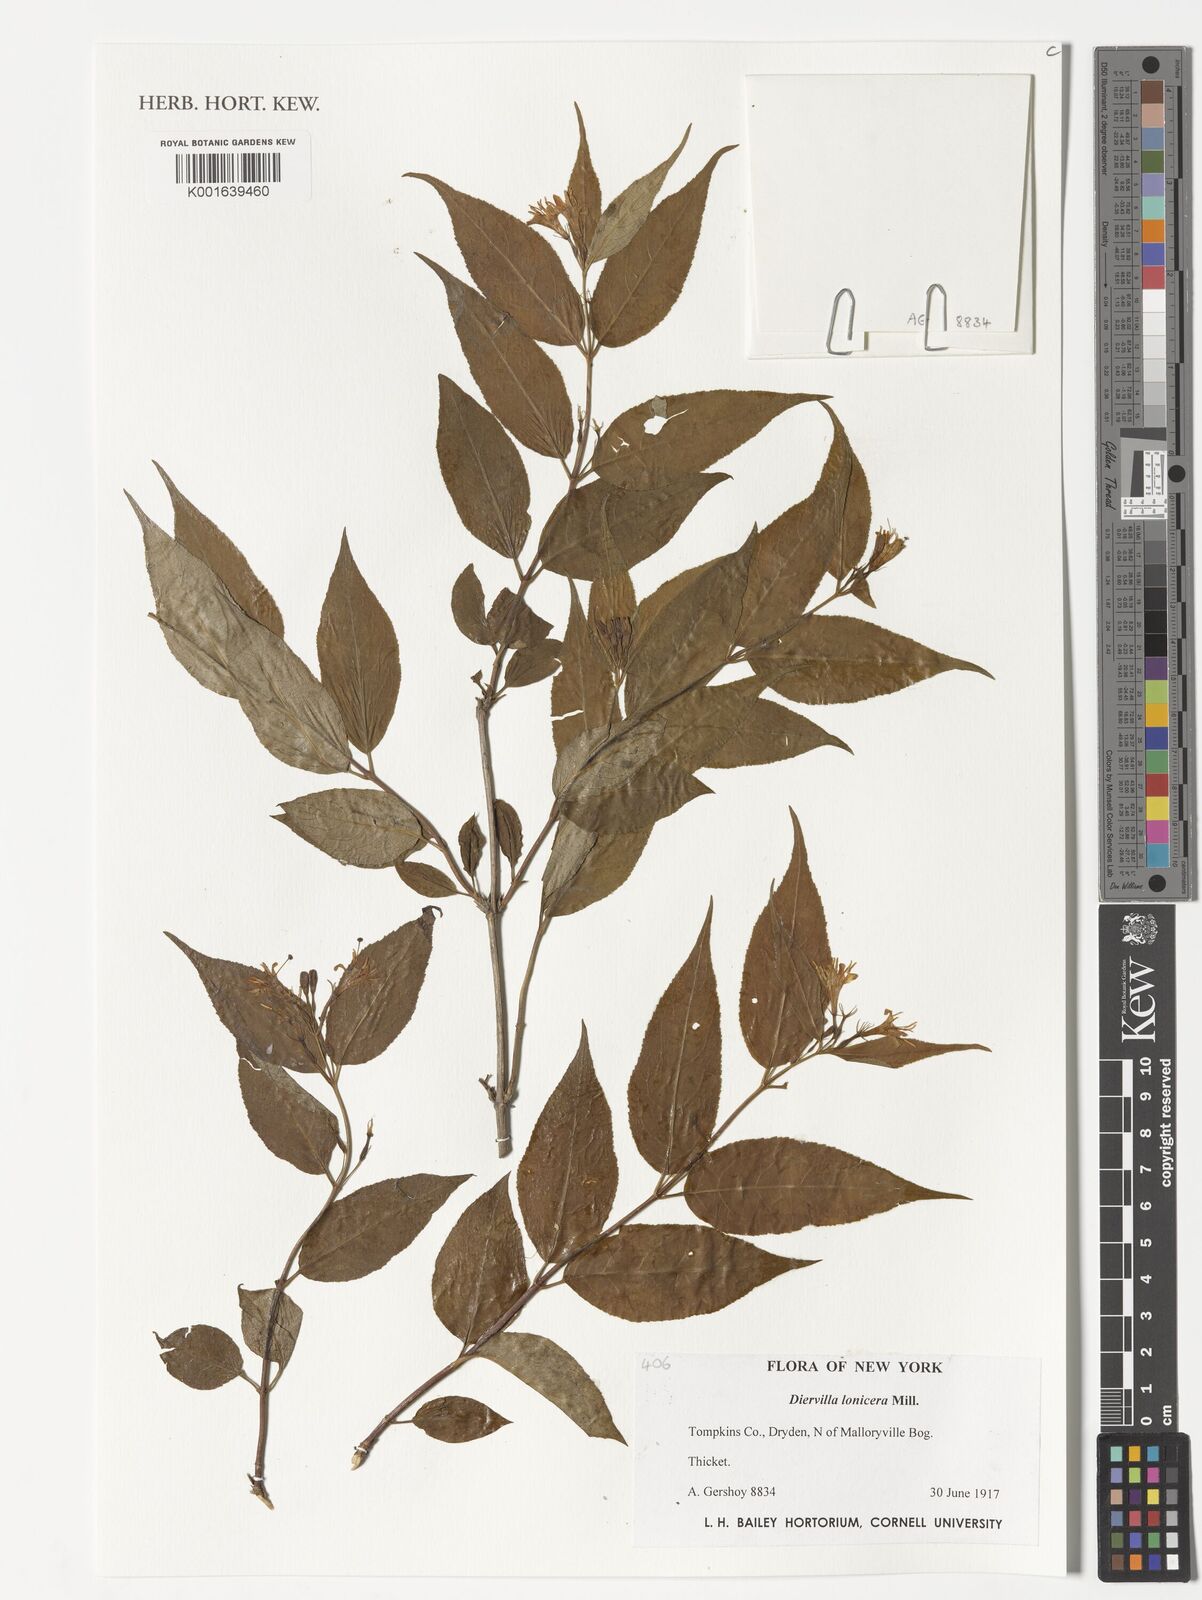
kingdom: Plantae
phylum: Tracheophyta
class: Magnoliopsida
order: Dipsacales
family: Caprifoliaceae
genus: Diervilla
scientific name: Diervilla lonicera
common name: Bush-honeysuckle
